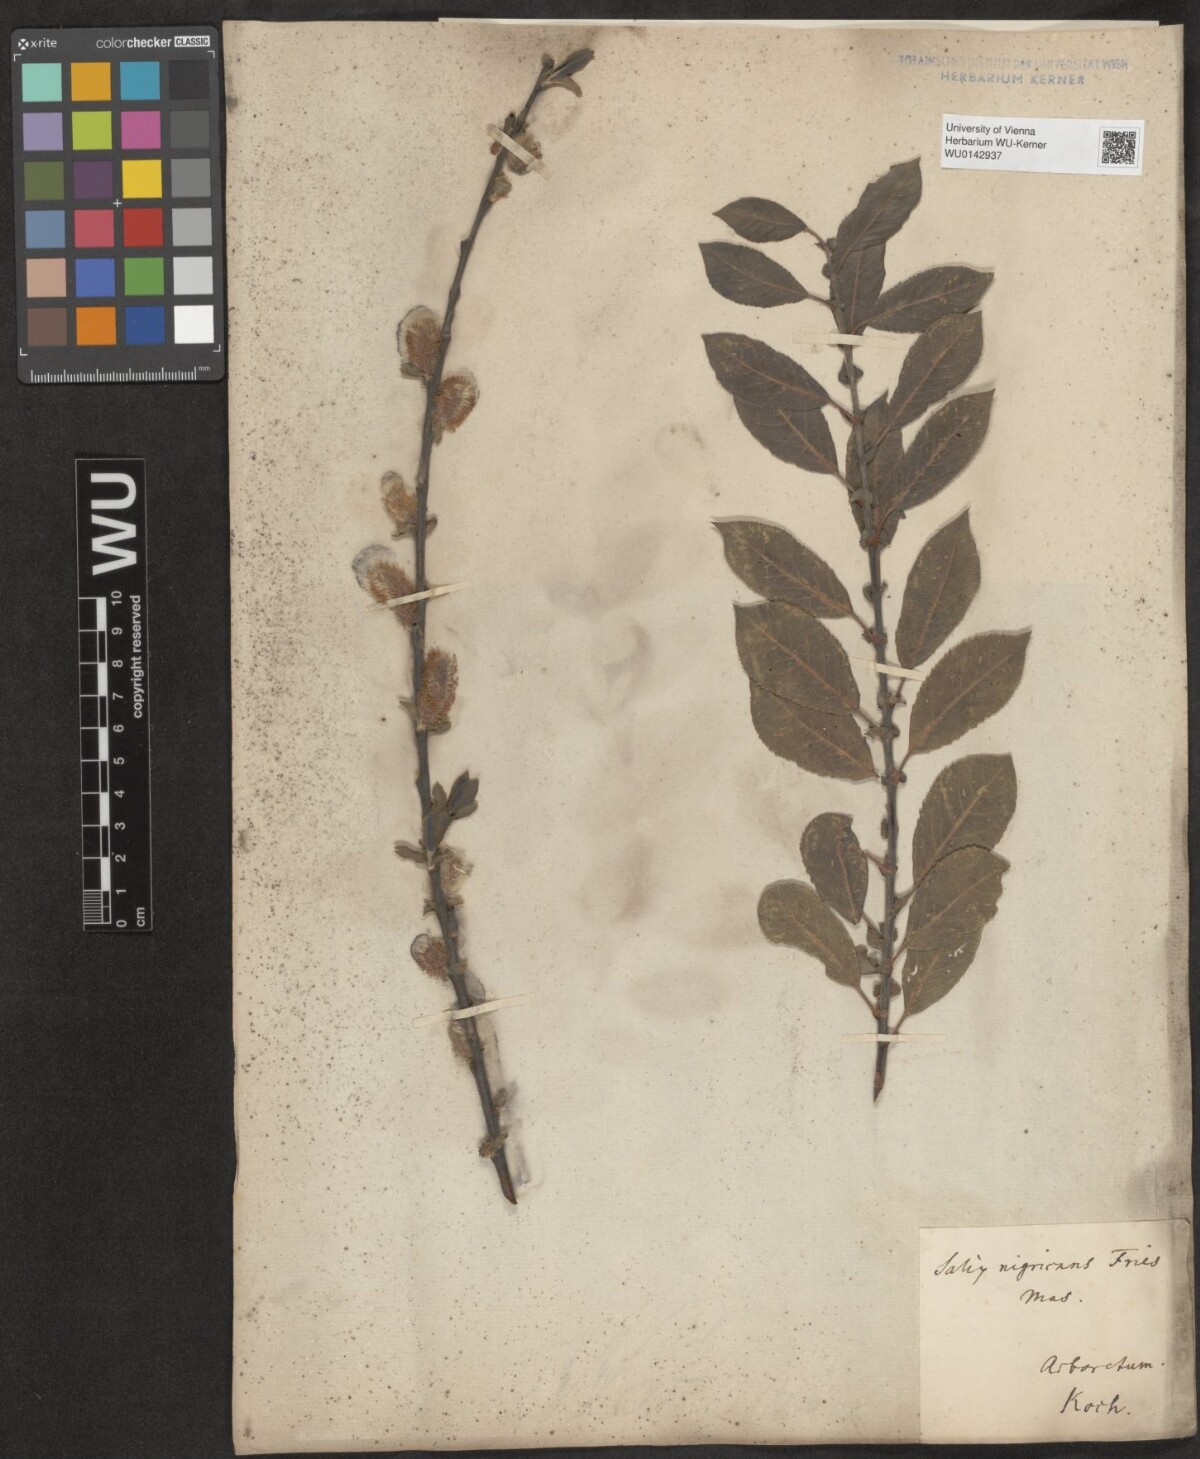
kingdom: Plantae
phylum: Tracheophyta
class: Magnoliopsida
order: Malpighiales
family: Salicaceae
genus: Salix
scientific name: Salix myrsinifolia
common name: Dark-leaved willow
